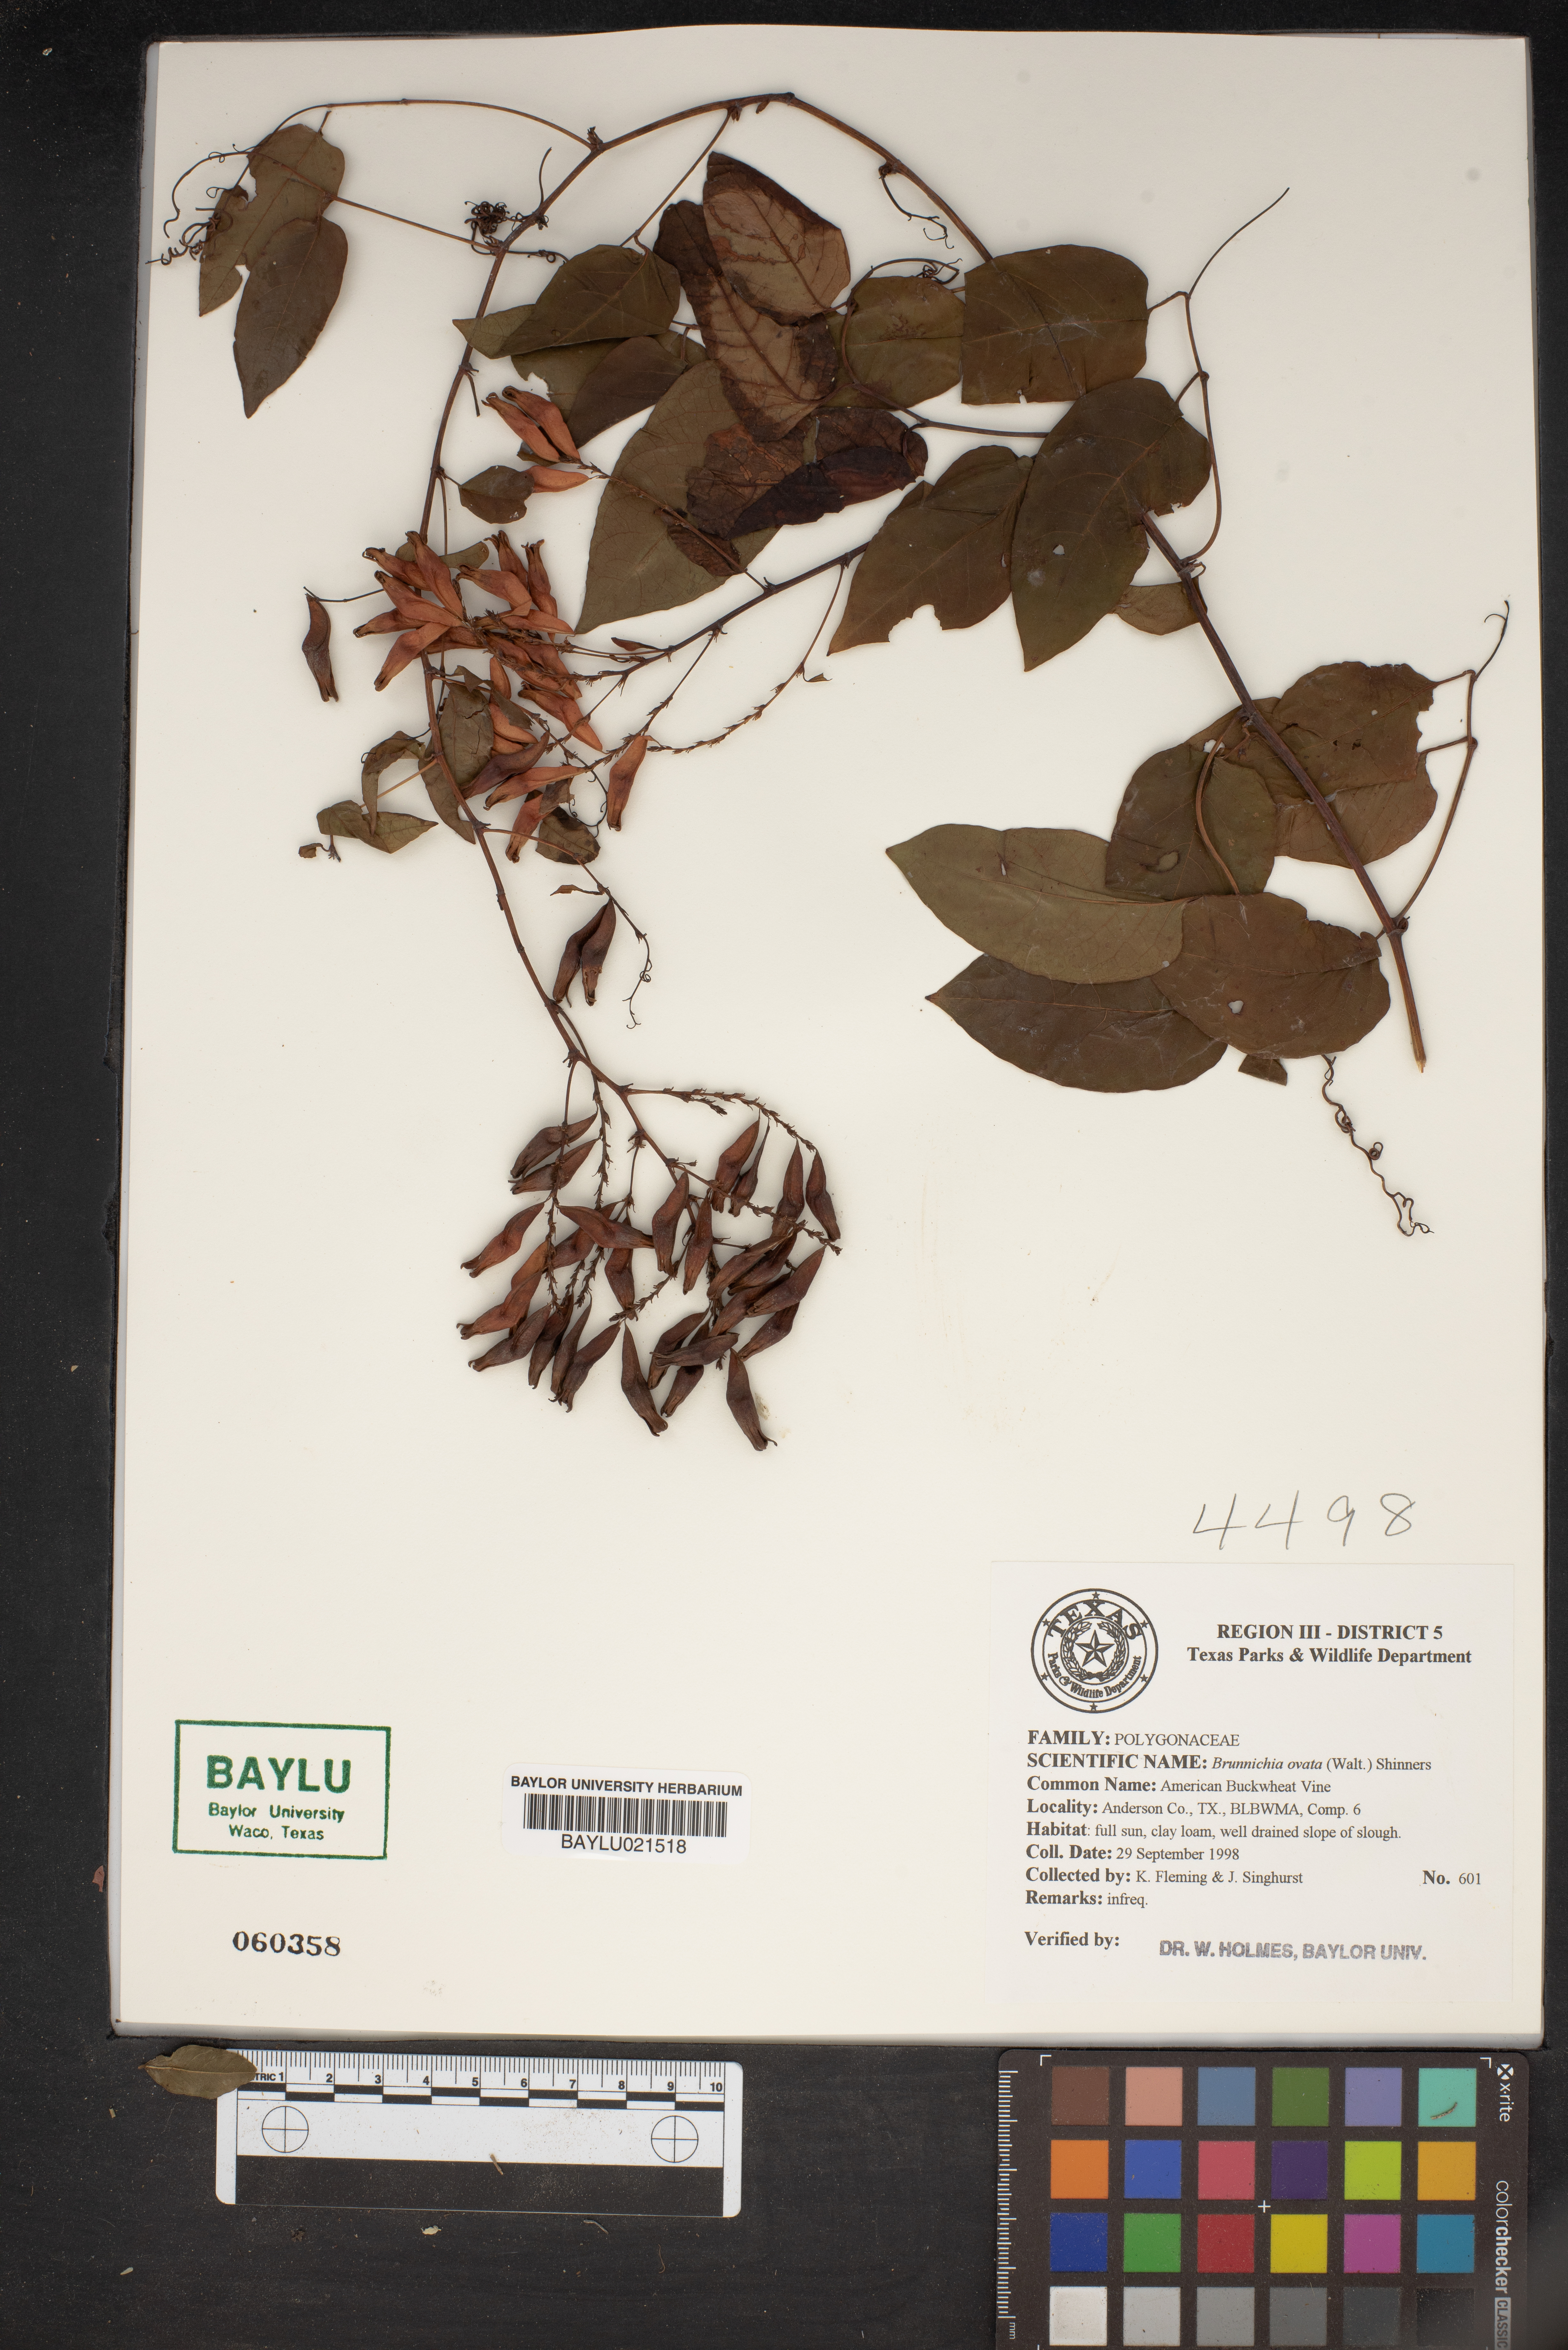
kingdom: Plantae
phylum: Tracheophyta
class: Magnoliopsida
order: Caryophyllales
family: Polygonaceae
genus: Brunnichia
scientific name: Brunnichia ovata
